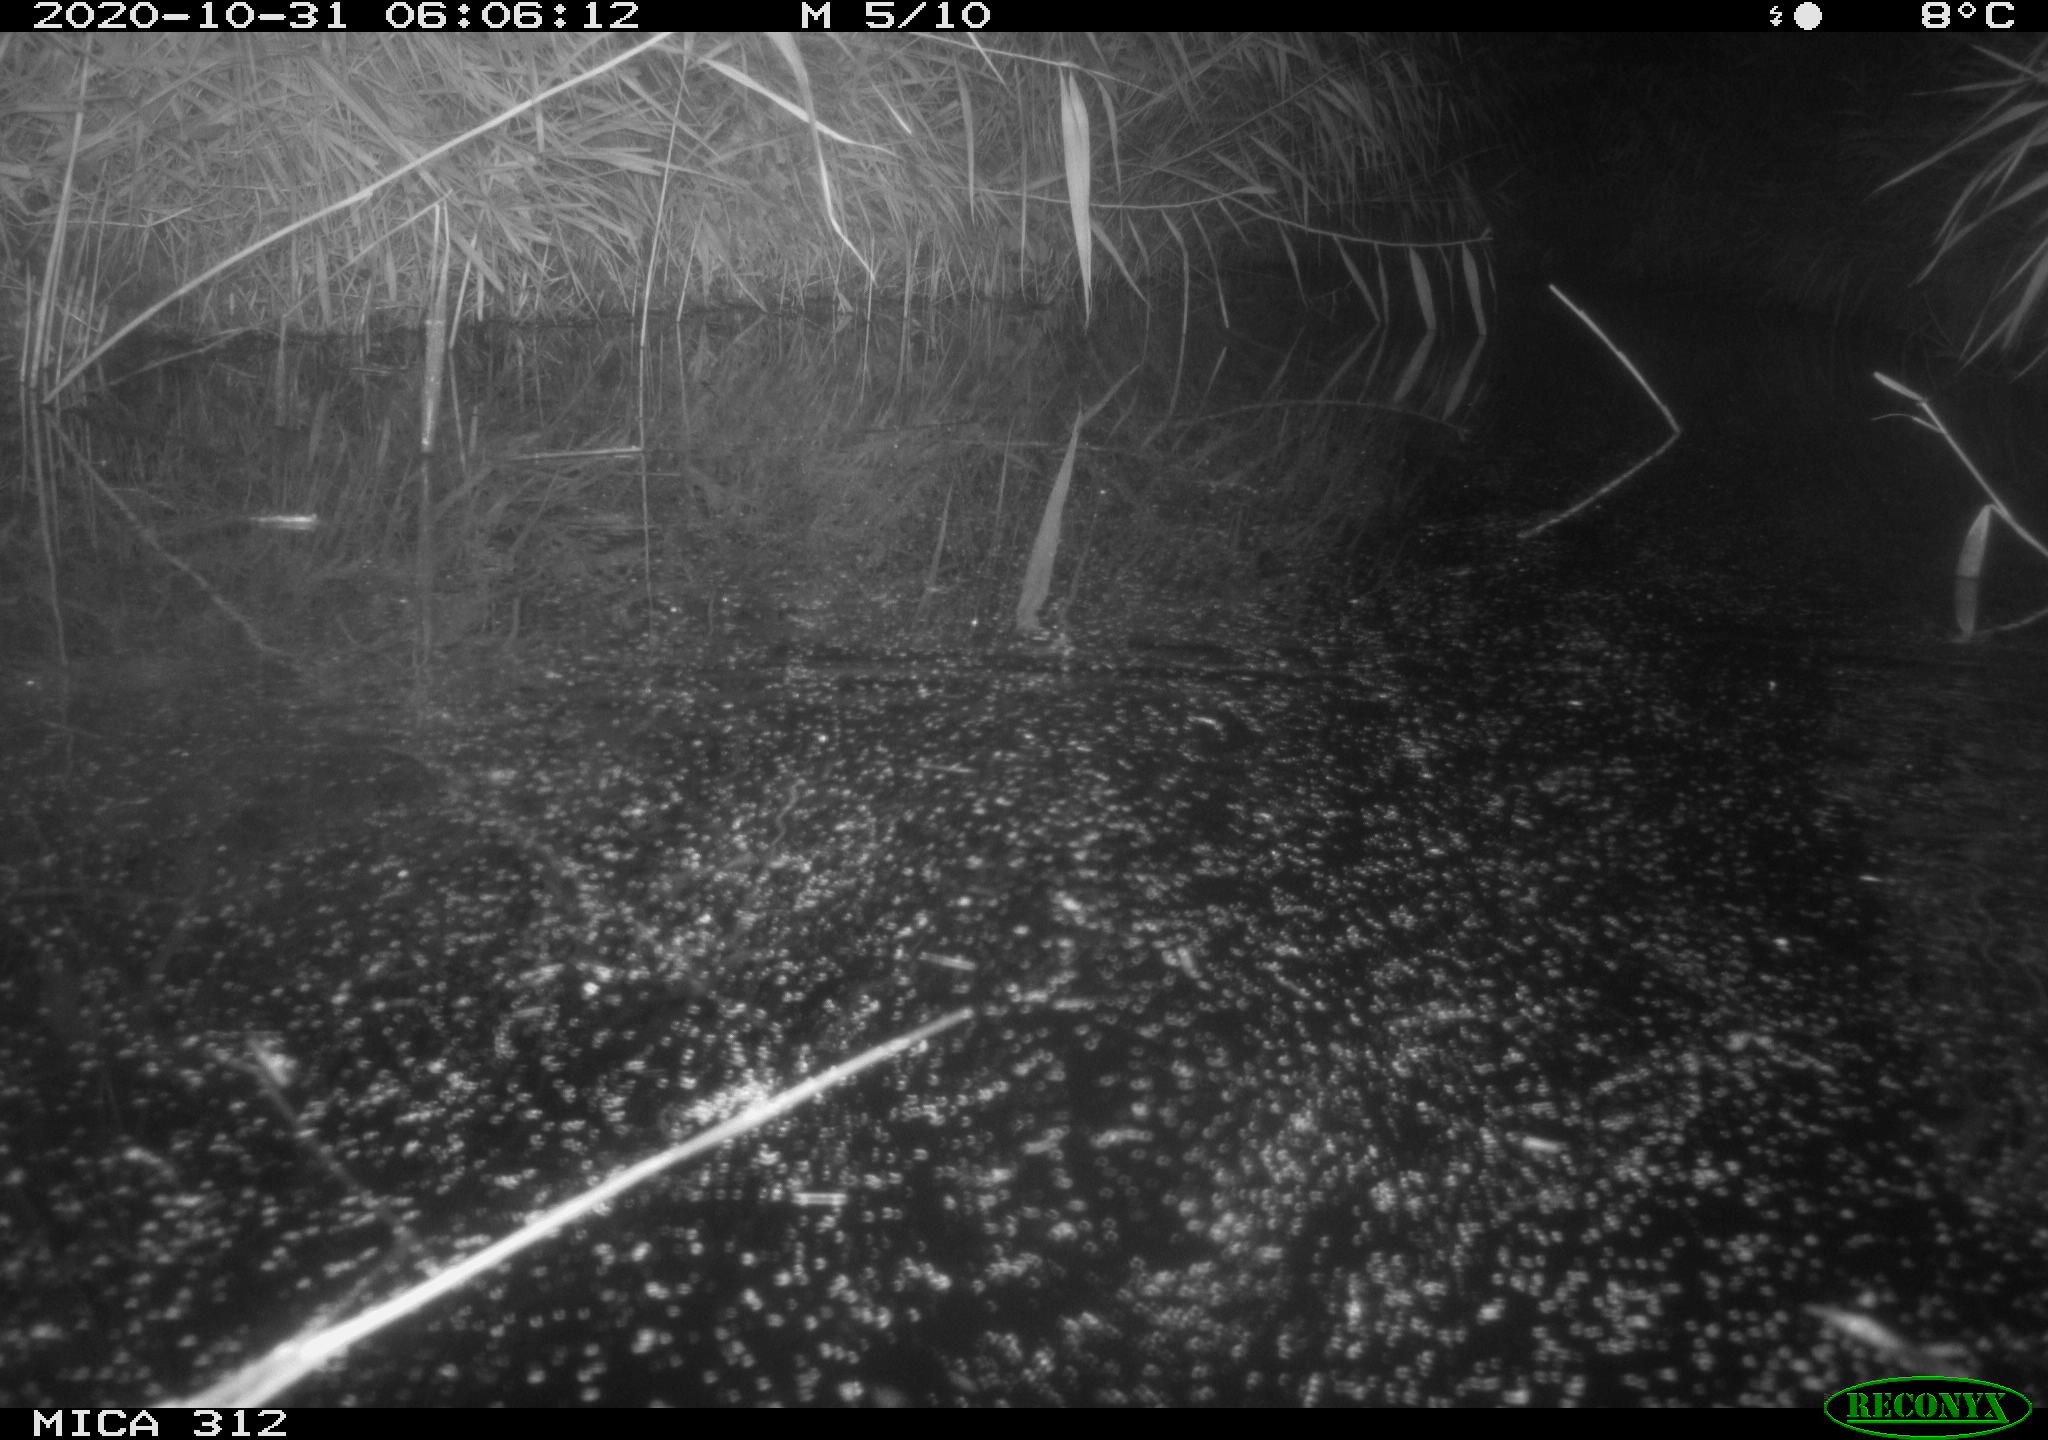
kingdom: Animalia
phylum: Chordata
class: Mammalia
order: Rodentia
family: Muridae
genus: Rattus
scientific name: Rattus norvegicus
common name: Brown rat
